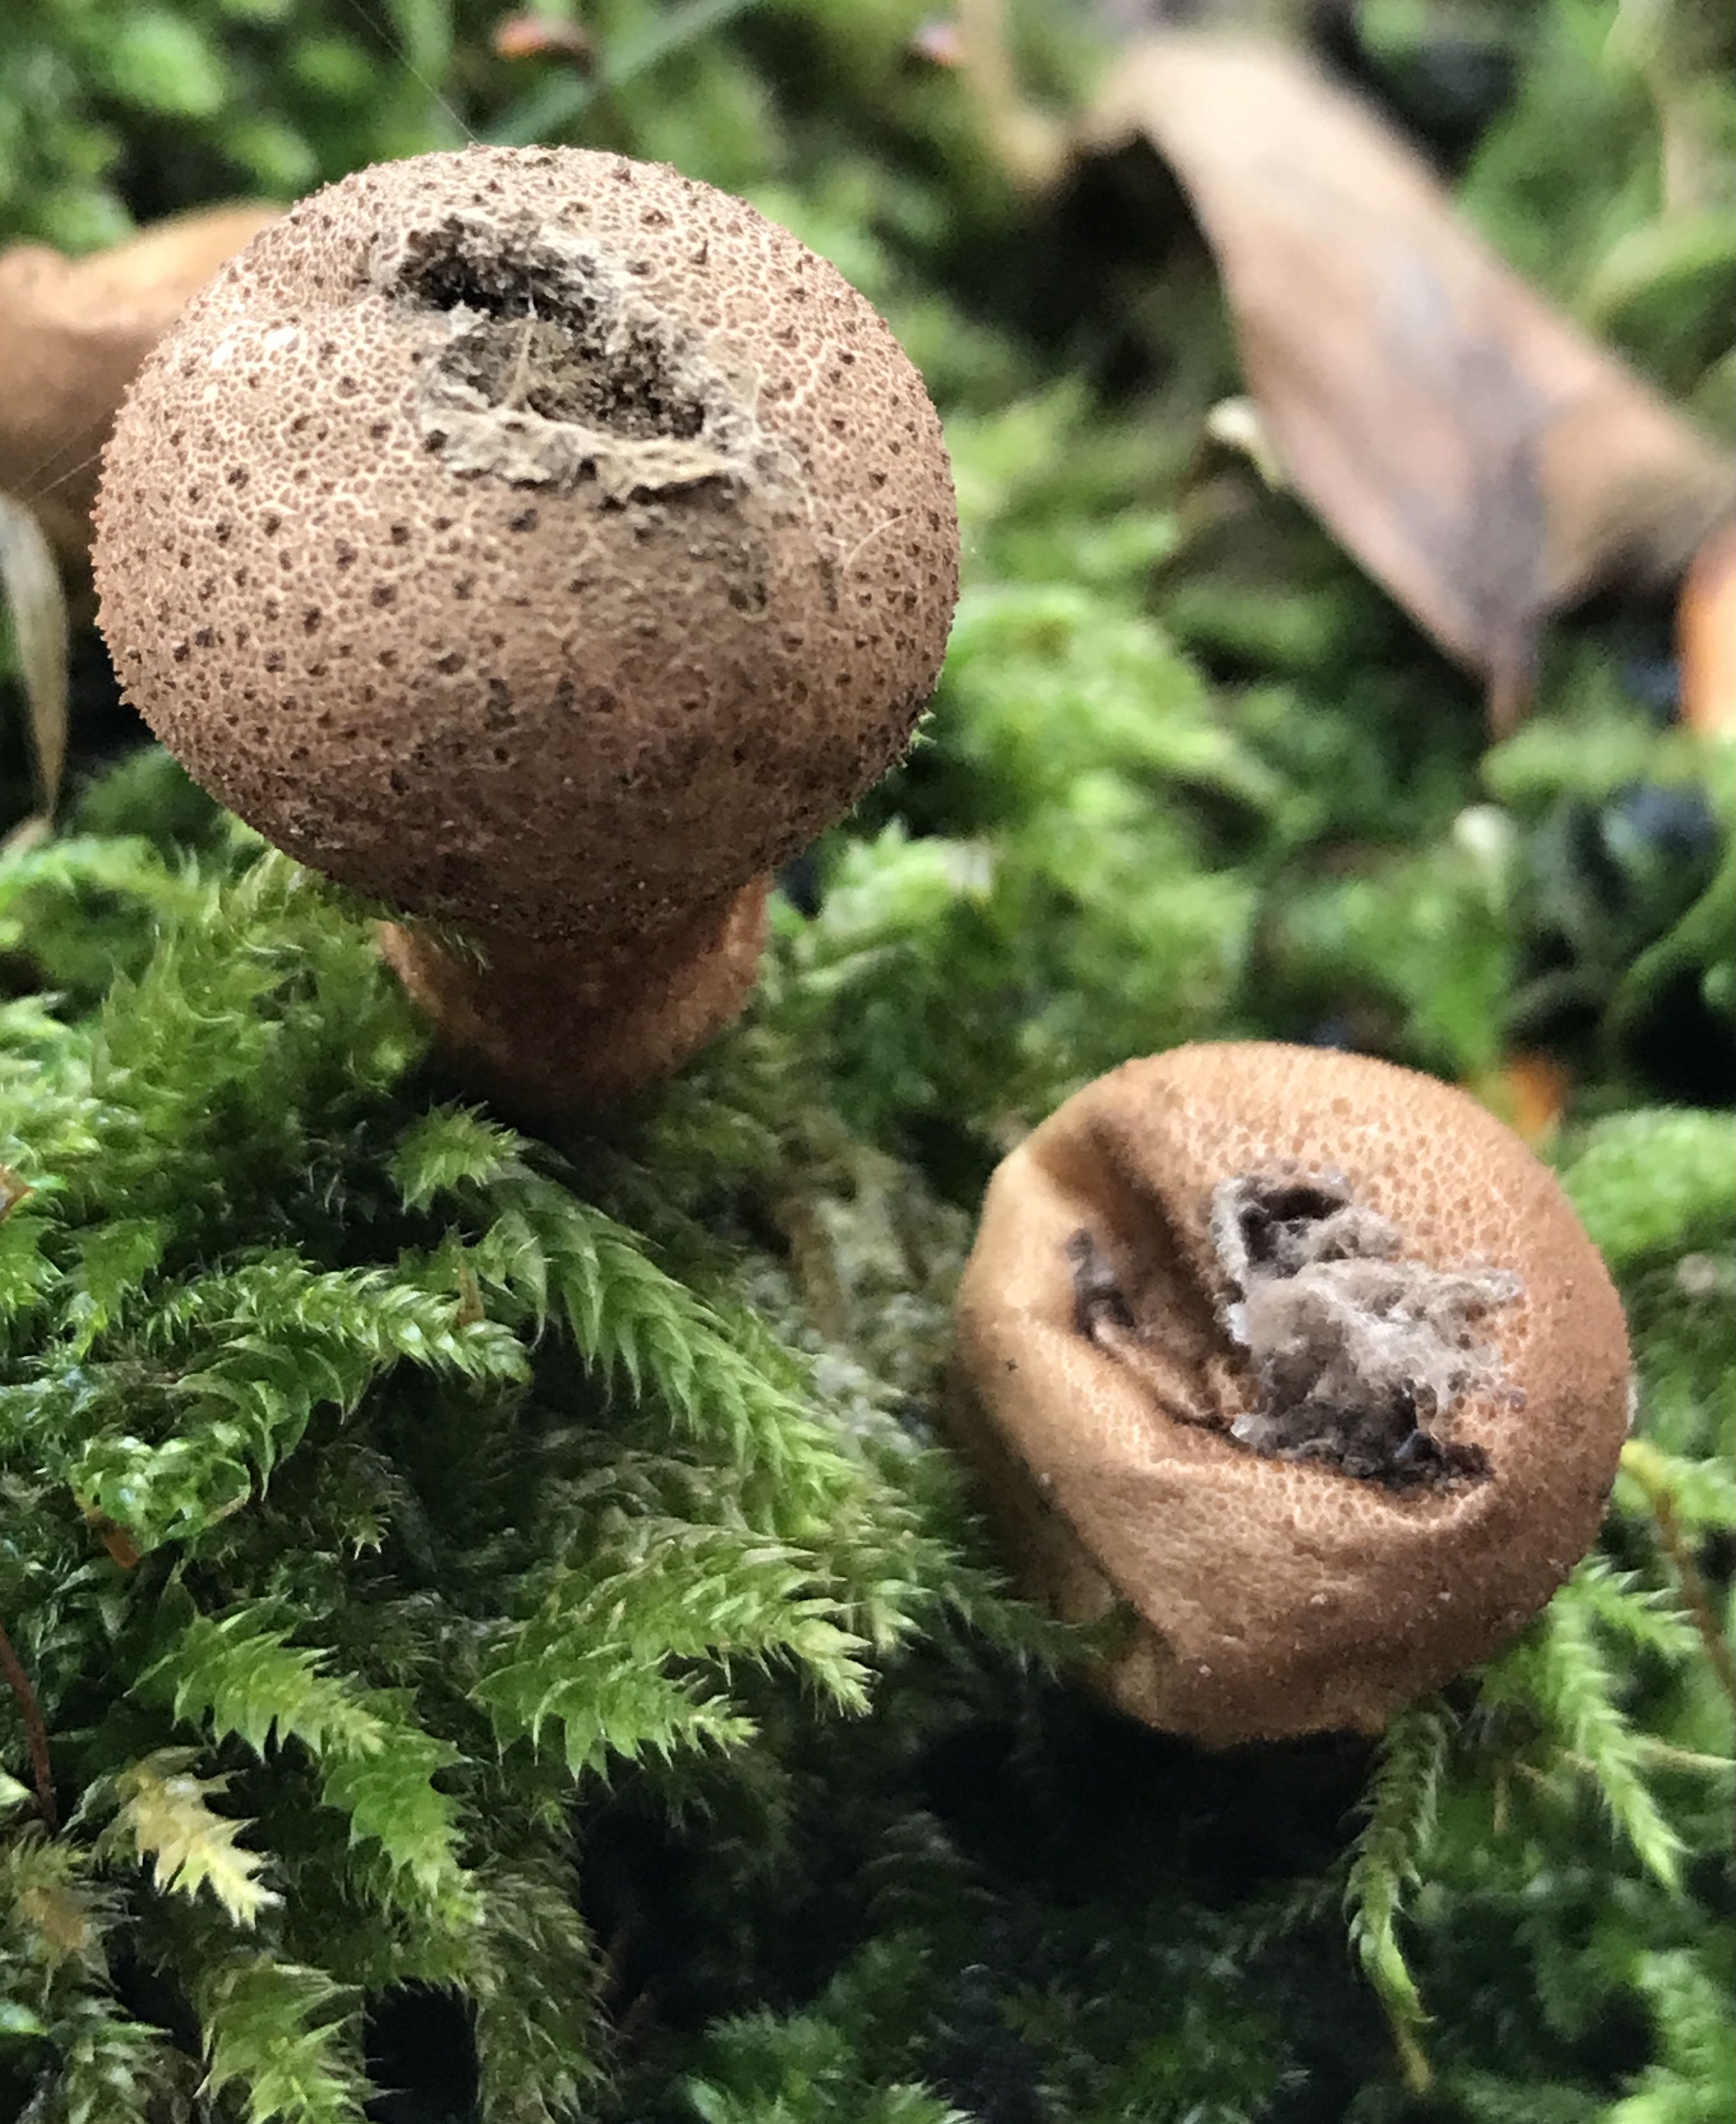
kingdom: Fungi
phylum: Basidiomycota
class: Agaricomycetes
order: Agaricales
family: Lycoperdaceae
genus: Apioperdon
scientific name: Apioperdon pyriforme
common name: pære-støvbold
